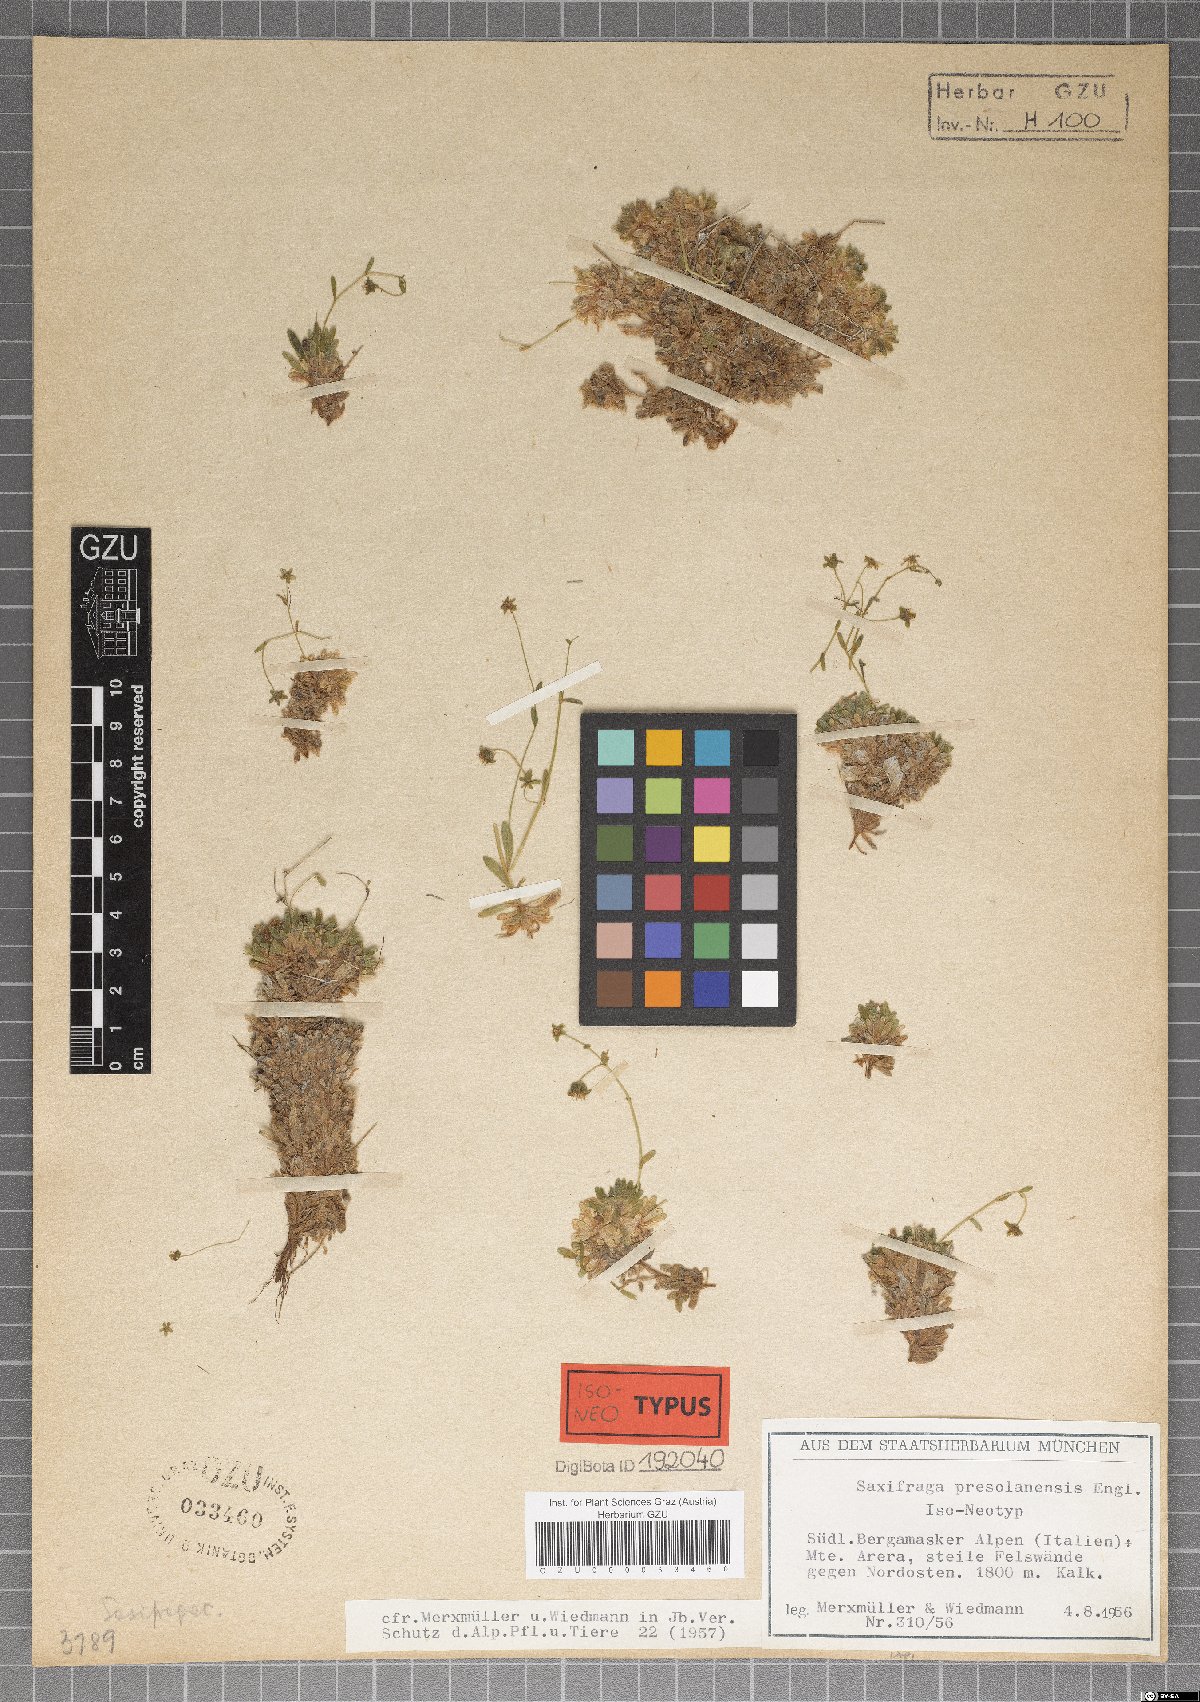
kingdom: Plantae
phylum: Tracheophyta
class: Magnoliopsida
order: Saxifragales
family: Saxifragaceae
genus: Saxifraga
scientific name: Saxifraga presolanensis
